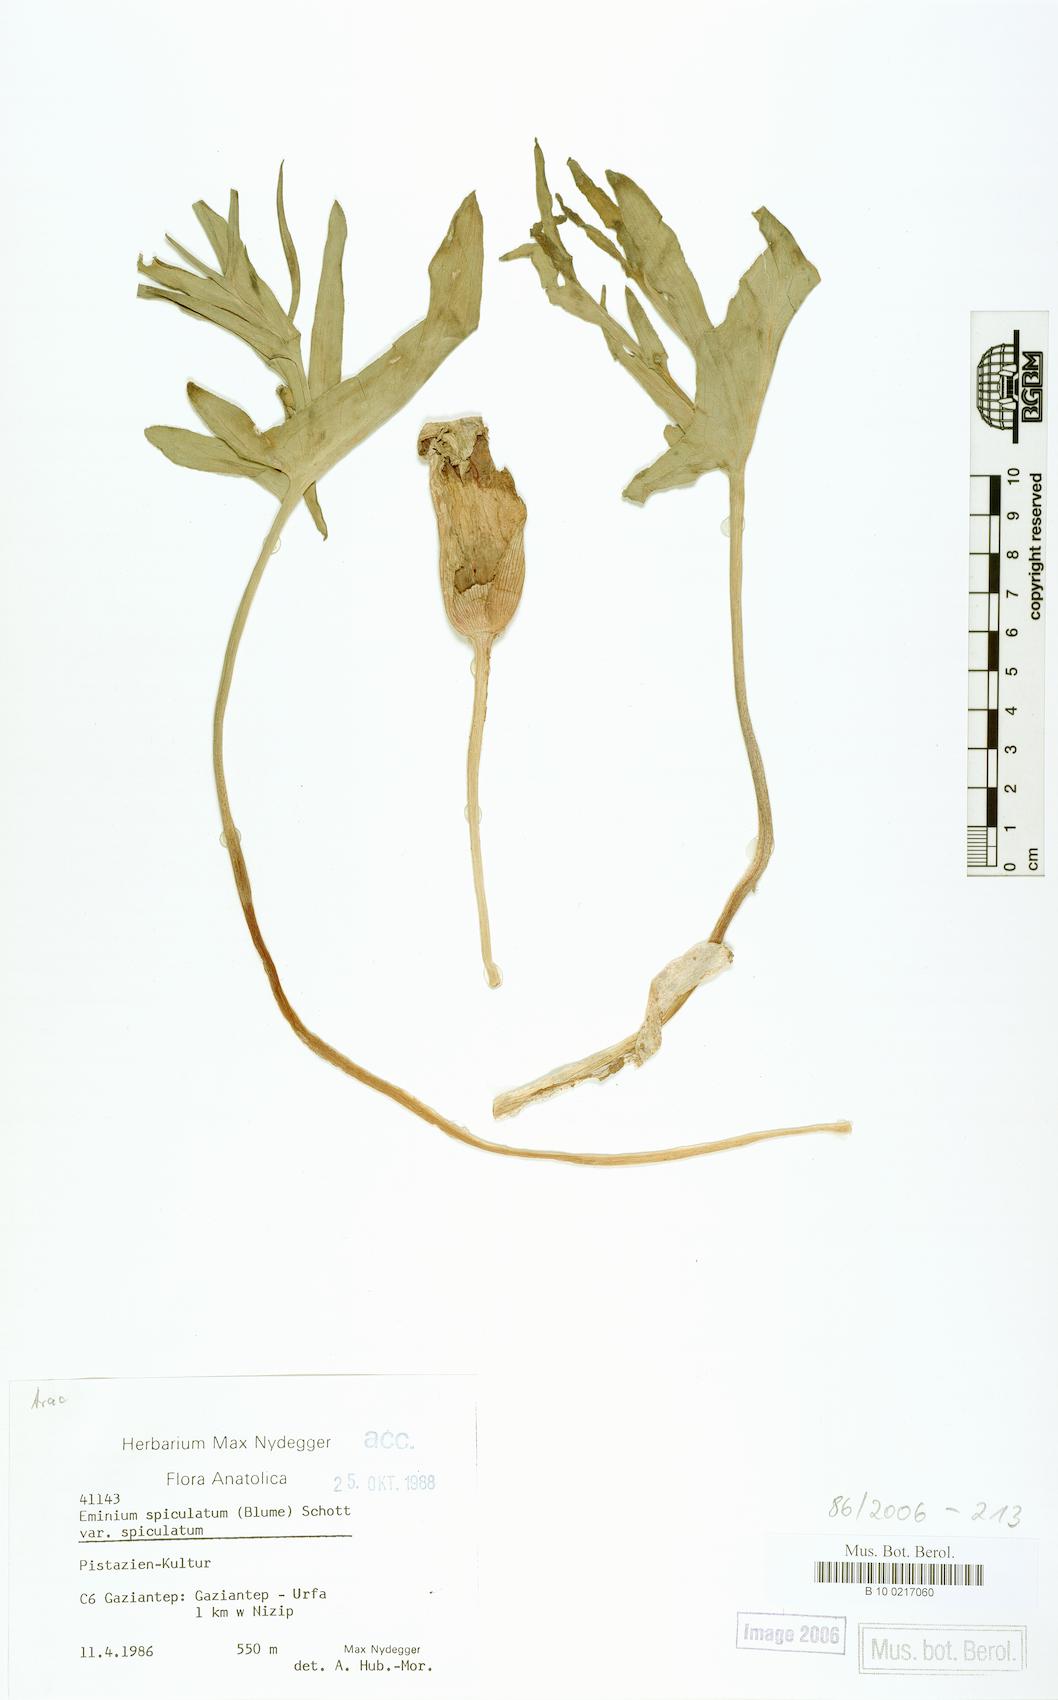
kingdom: Plantae
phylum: Tracheophyta
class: Liliopsida
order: Alismatales
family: Araceae
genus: Eminium
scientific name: Eminium spiculatum
